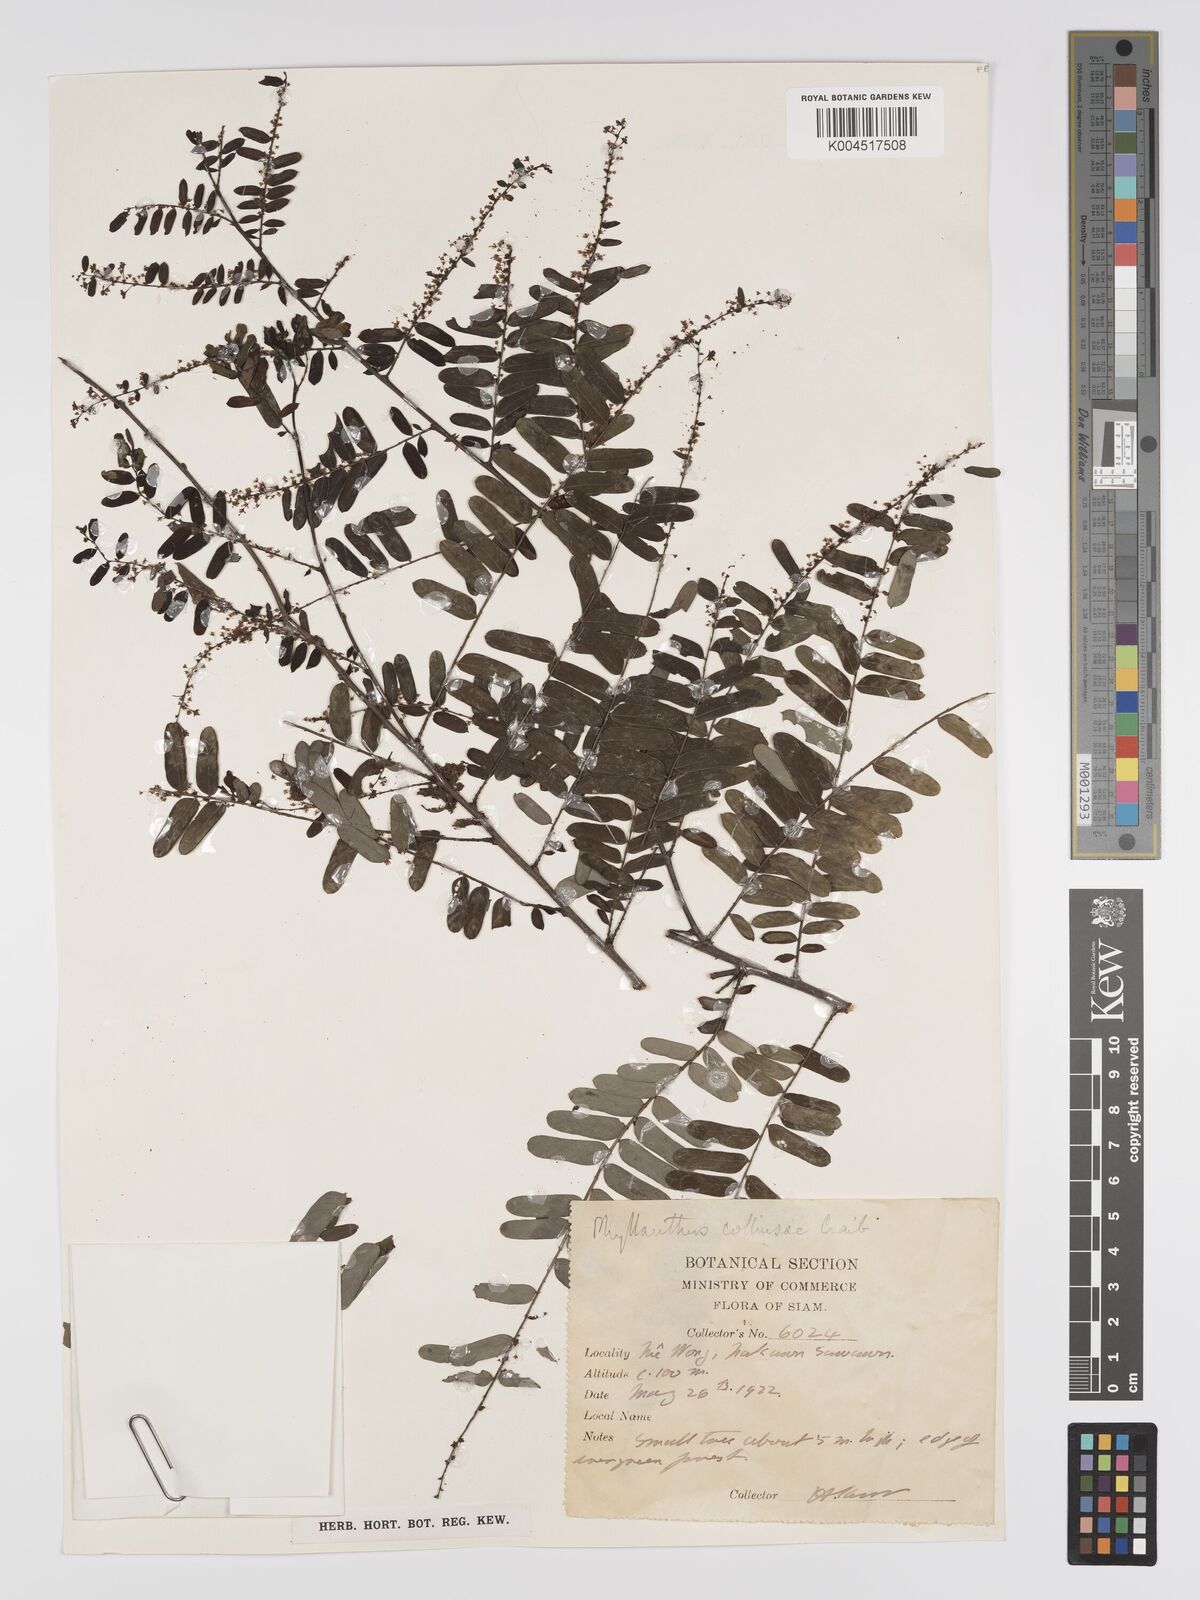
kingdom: Plantae
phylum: Tracheophyta
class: Magnoliopsida
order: Malpighiales
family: Phyllanthaceae
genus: Phyllanthus
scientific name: Phyllanthus collinsiae
